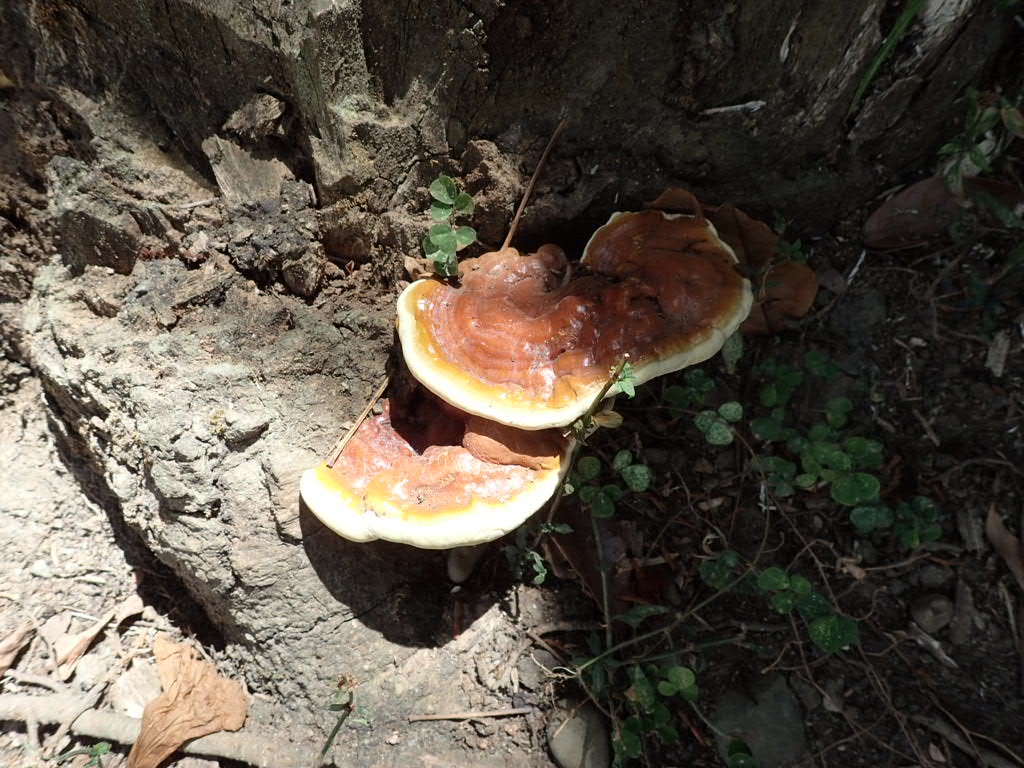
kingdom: Fungi
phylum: Basidiomycota
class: Agaricomycetes
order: Polyporales
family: Polyporaceae
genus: Ganoderma
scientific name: Ganoderma
